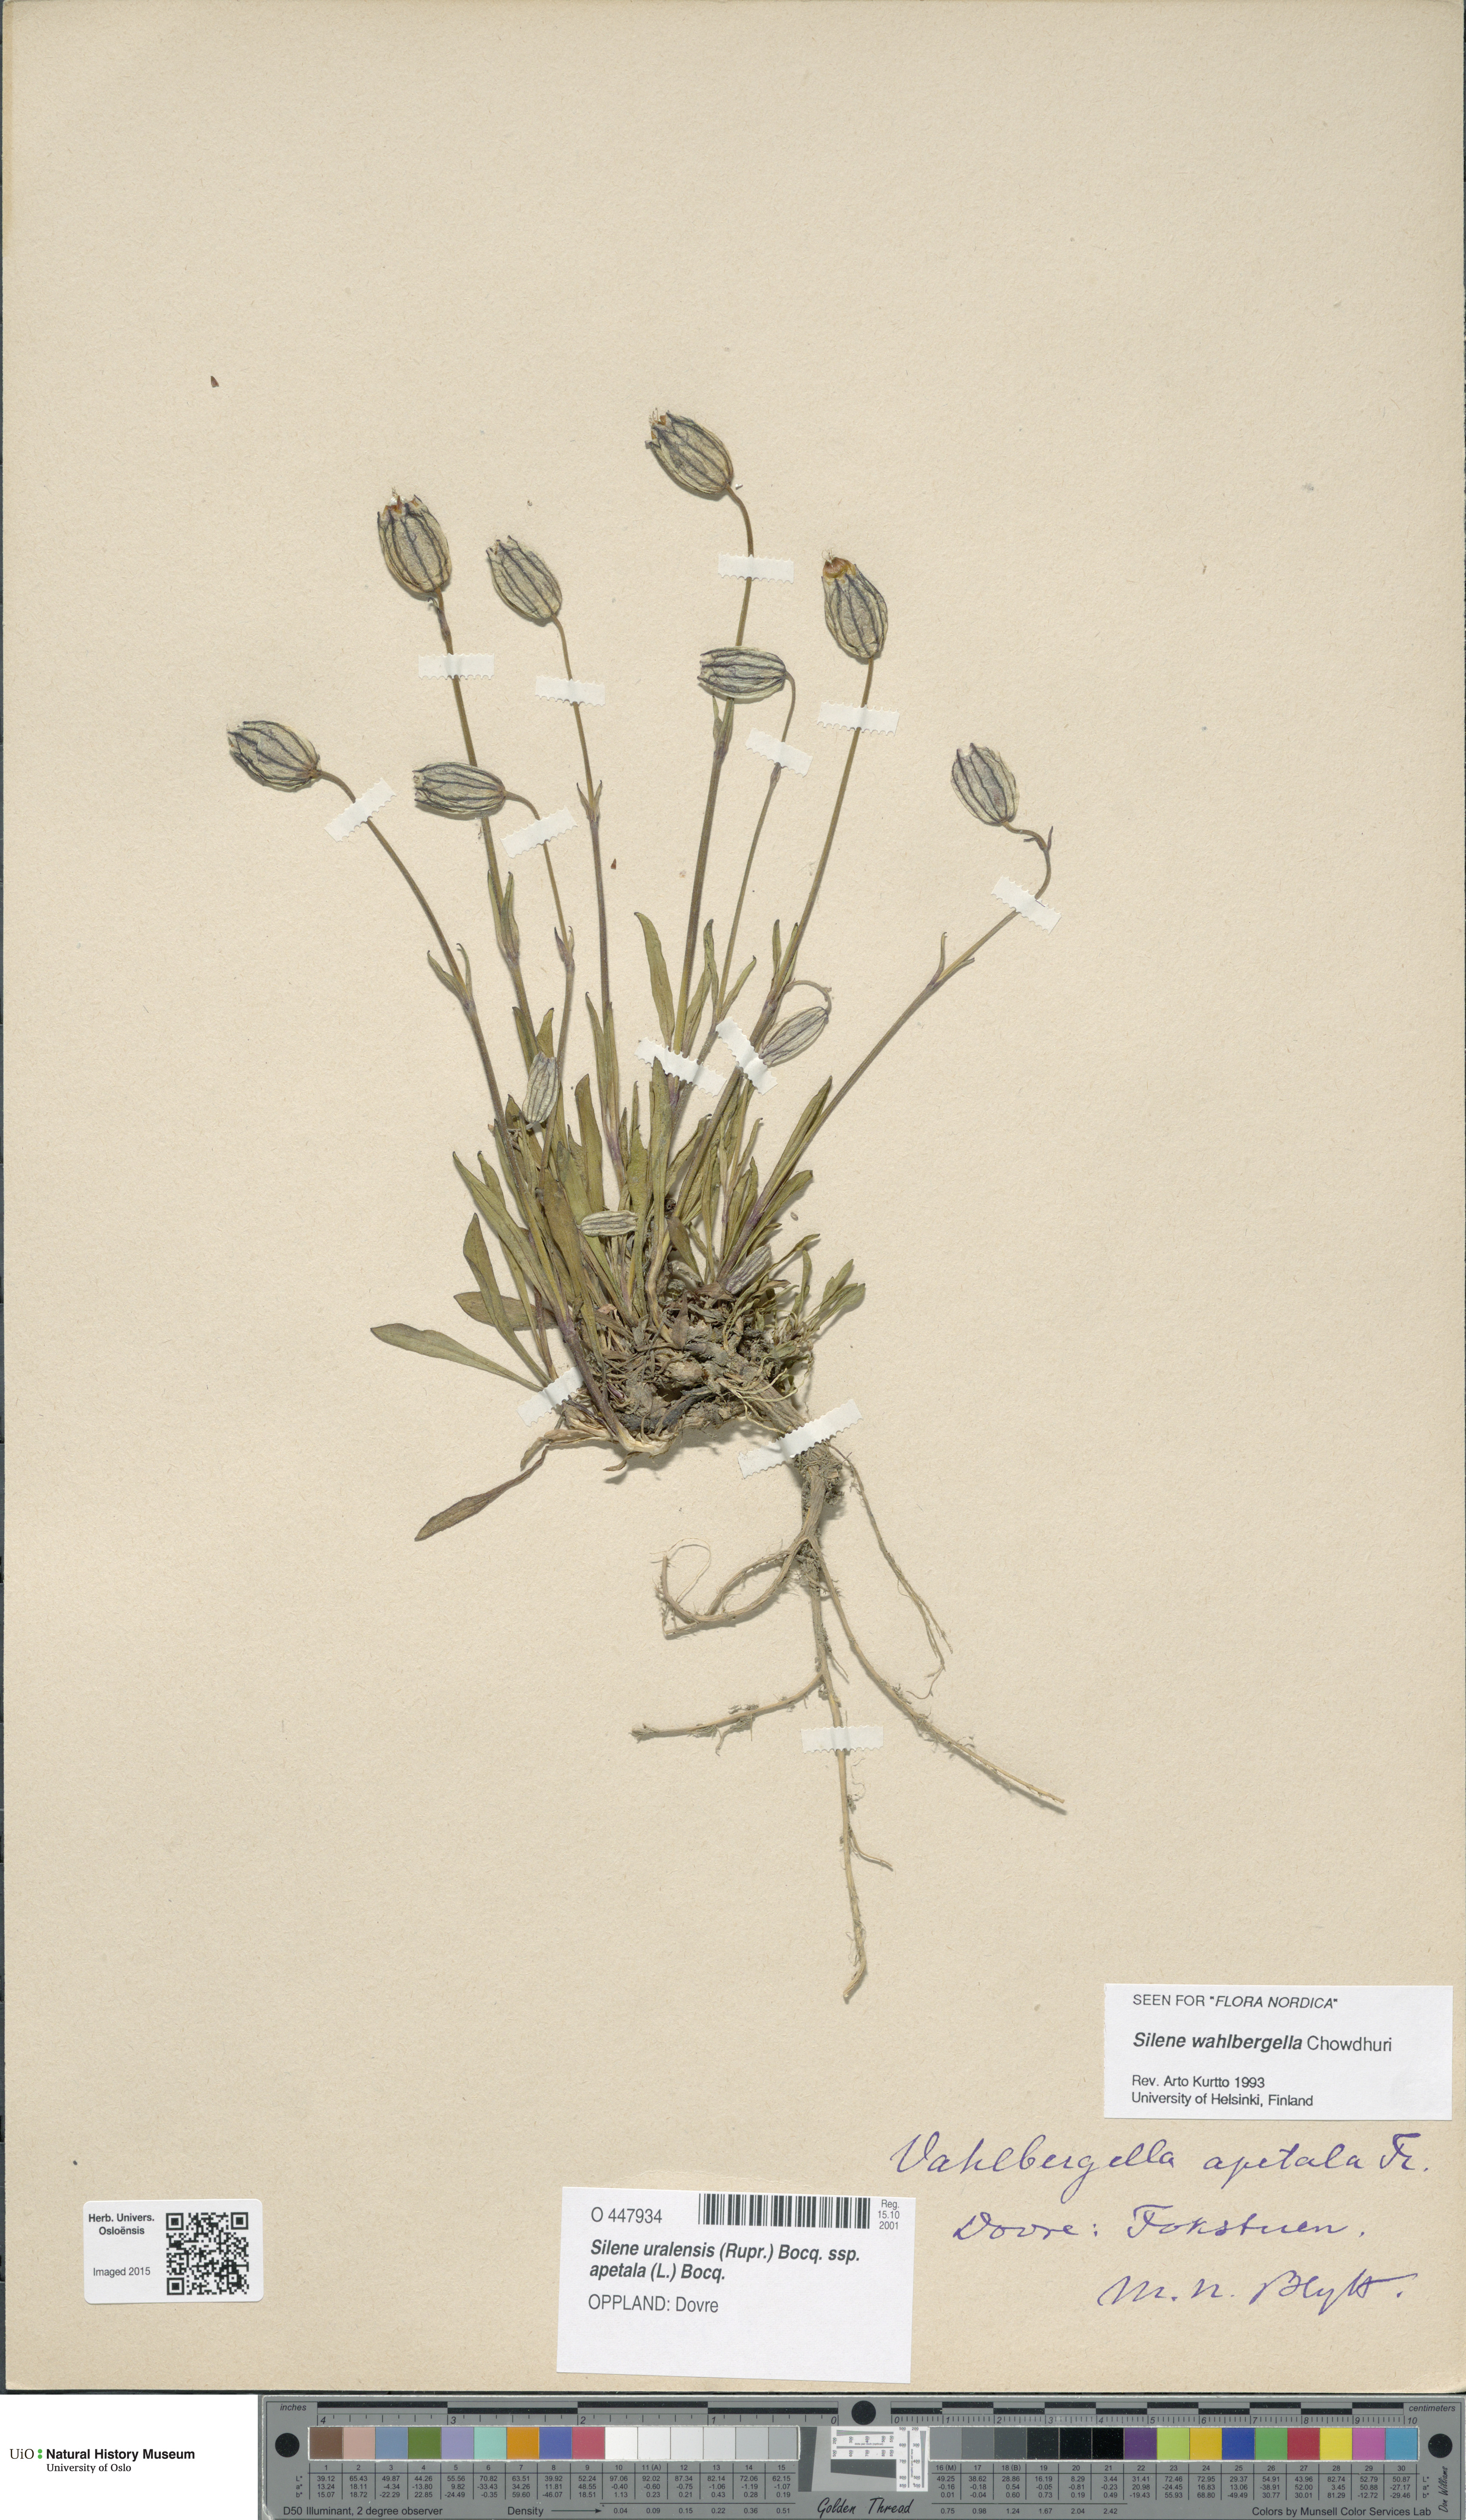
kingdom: Plantae
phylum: Tracheophyta
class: Magnoliopsida
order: Caryophyllales
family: Caryophyllaceae
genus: Silene
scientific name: Silene wahlbergella
